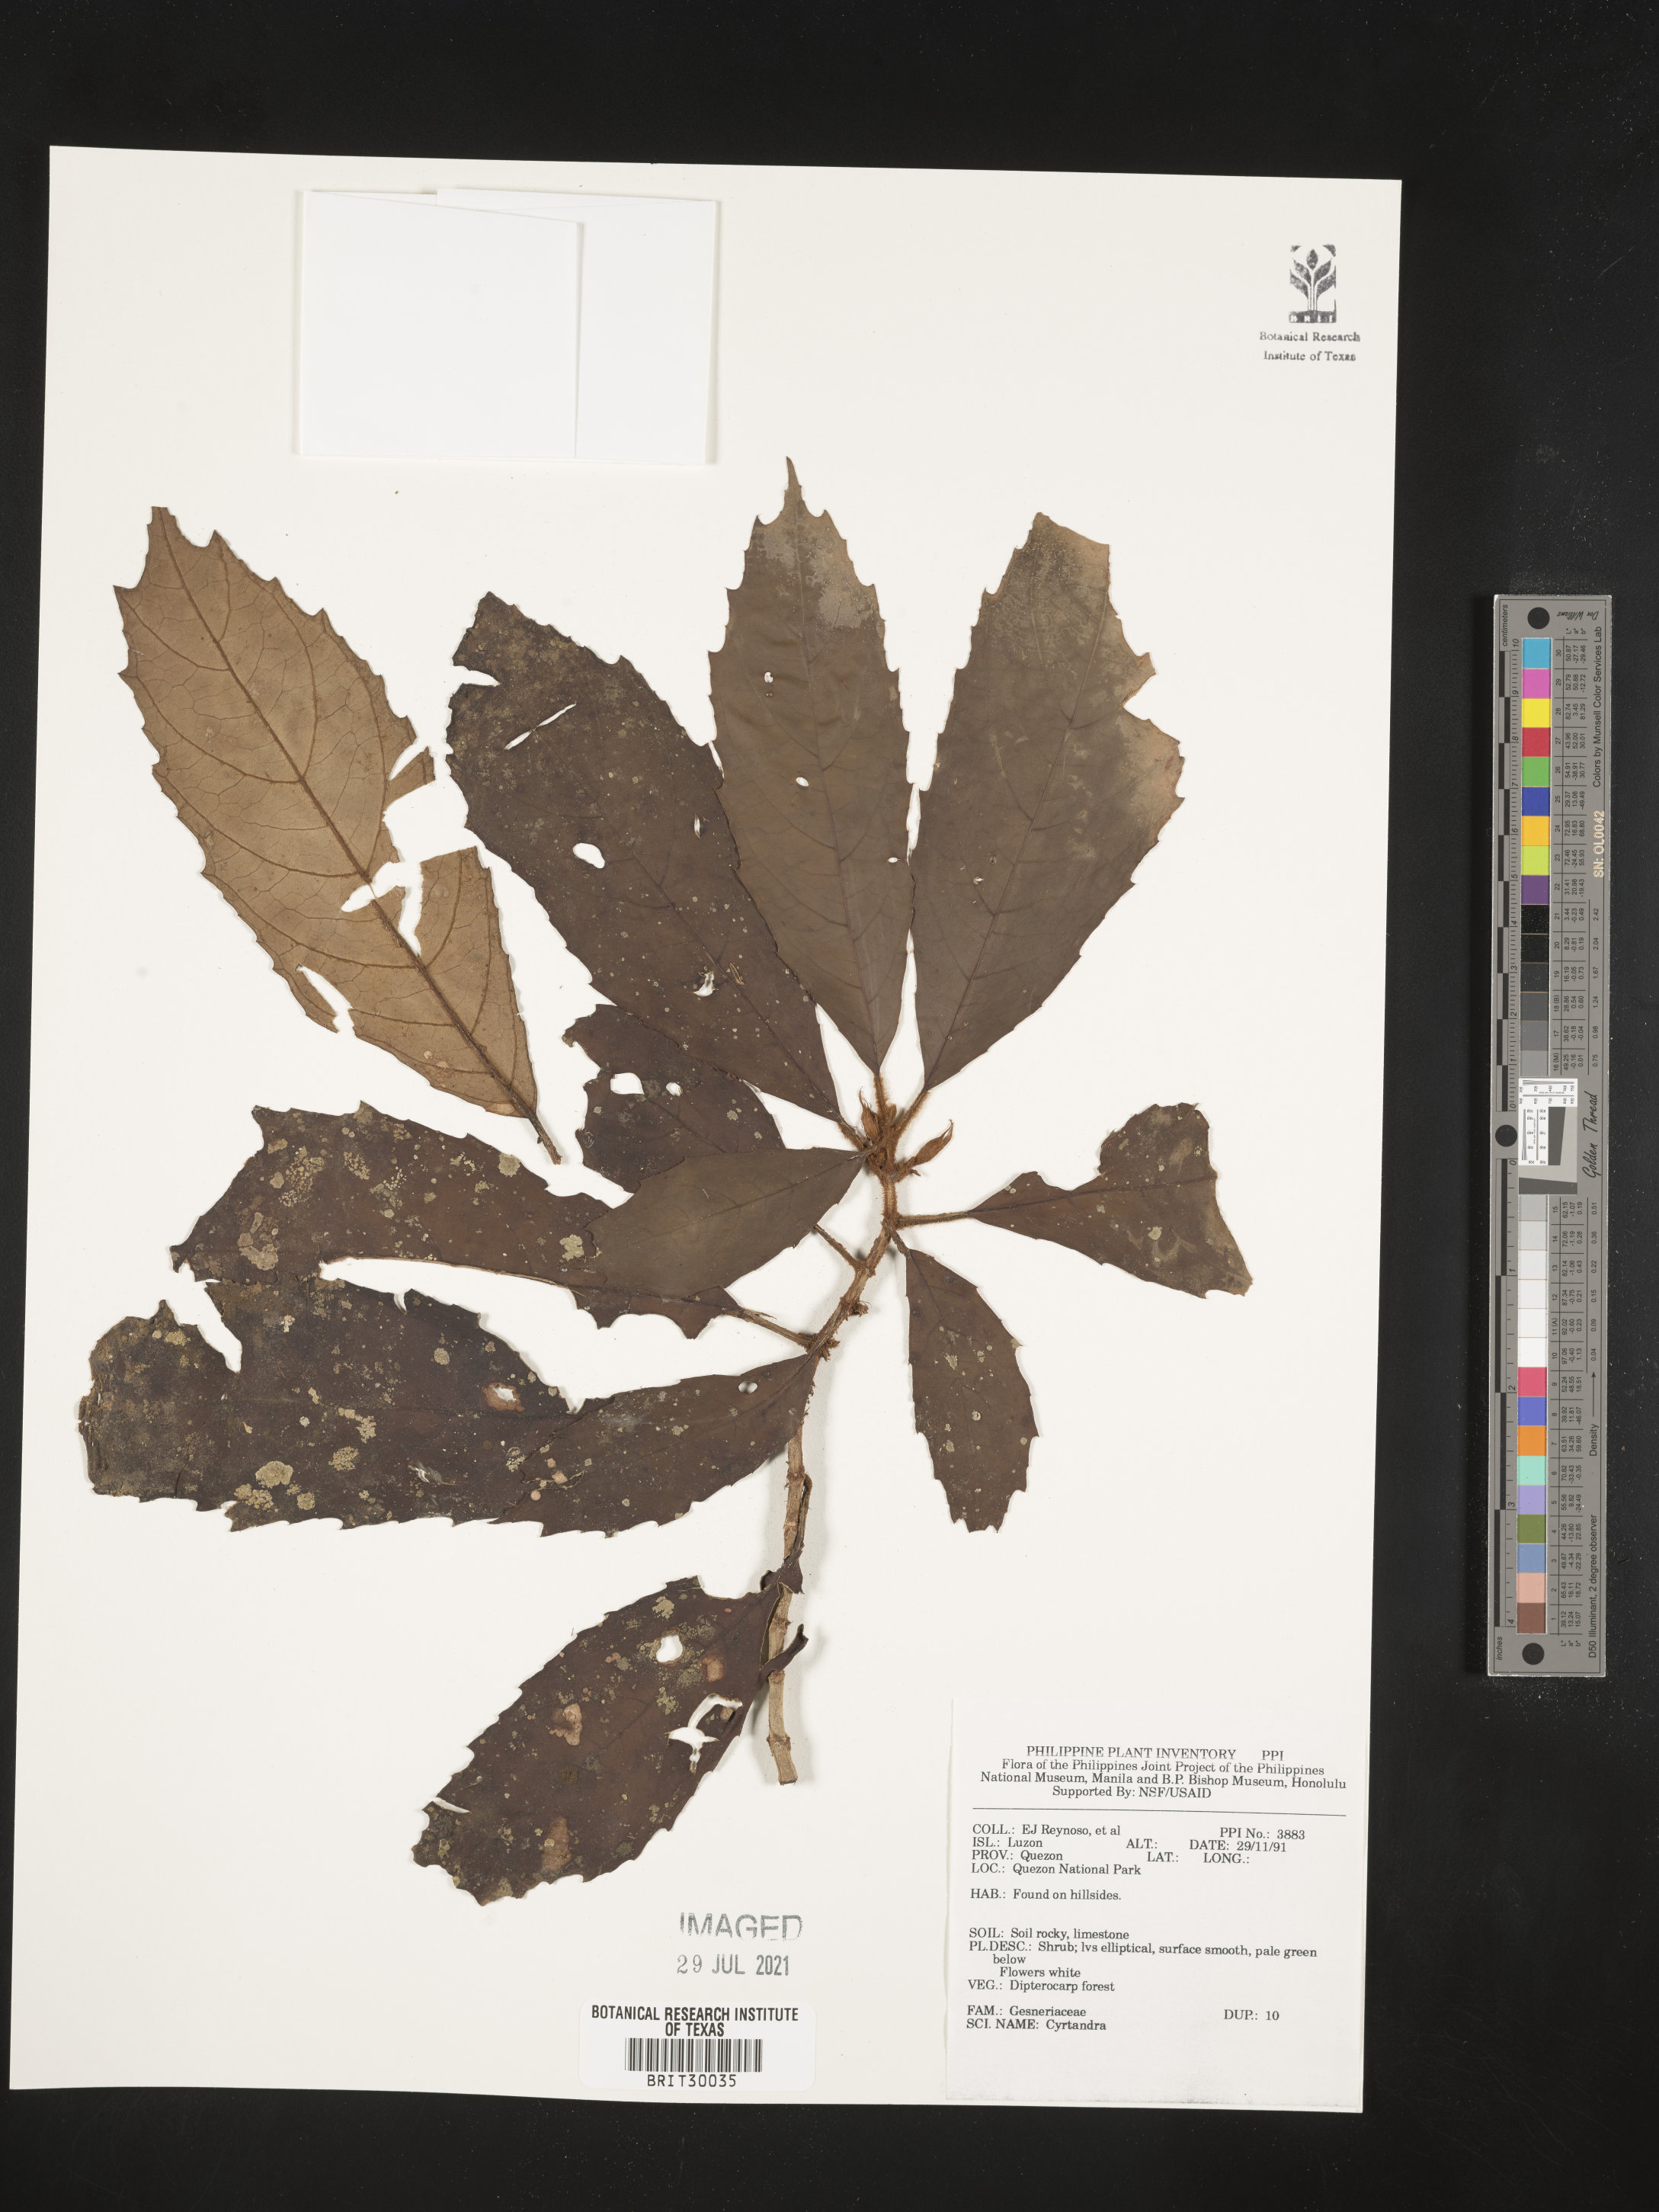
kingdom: Plantae
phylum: Tracheophyta
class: Magnoliopsida
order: Lamiales
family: Gesneriaceae
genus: Cyrtandra
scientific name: Cyrtandra
